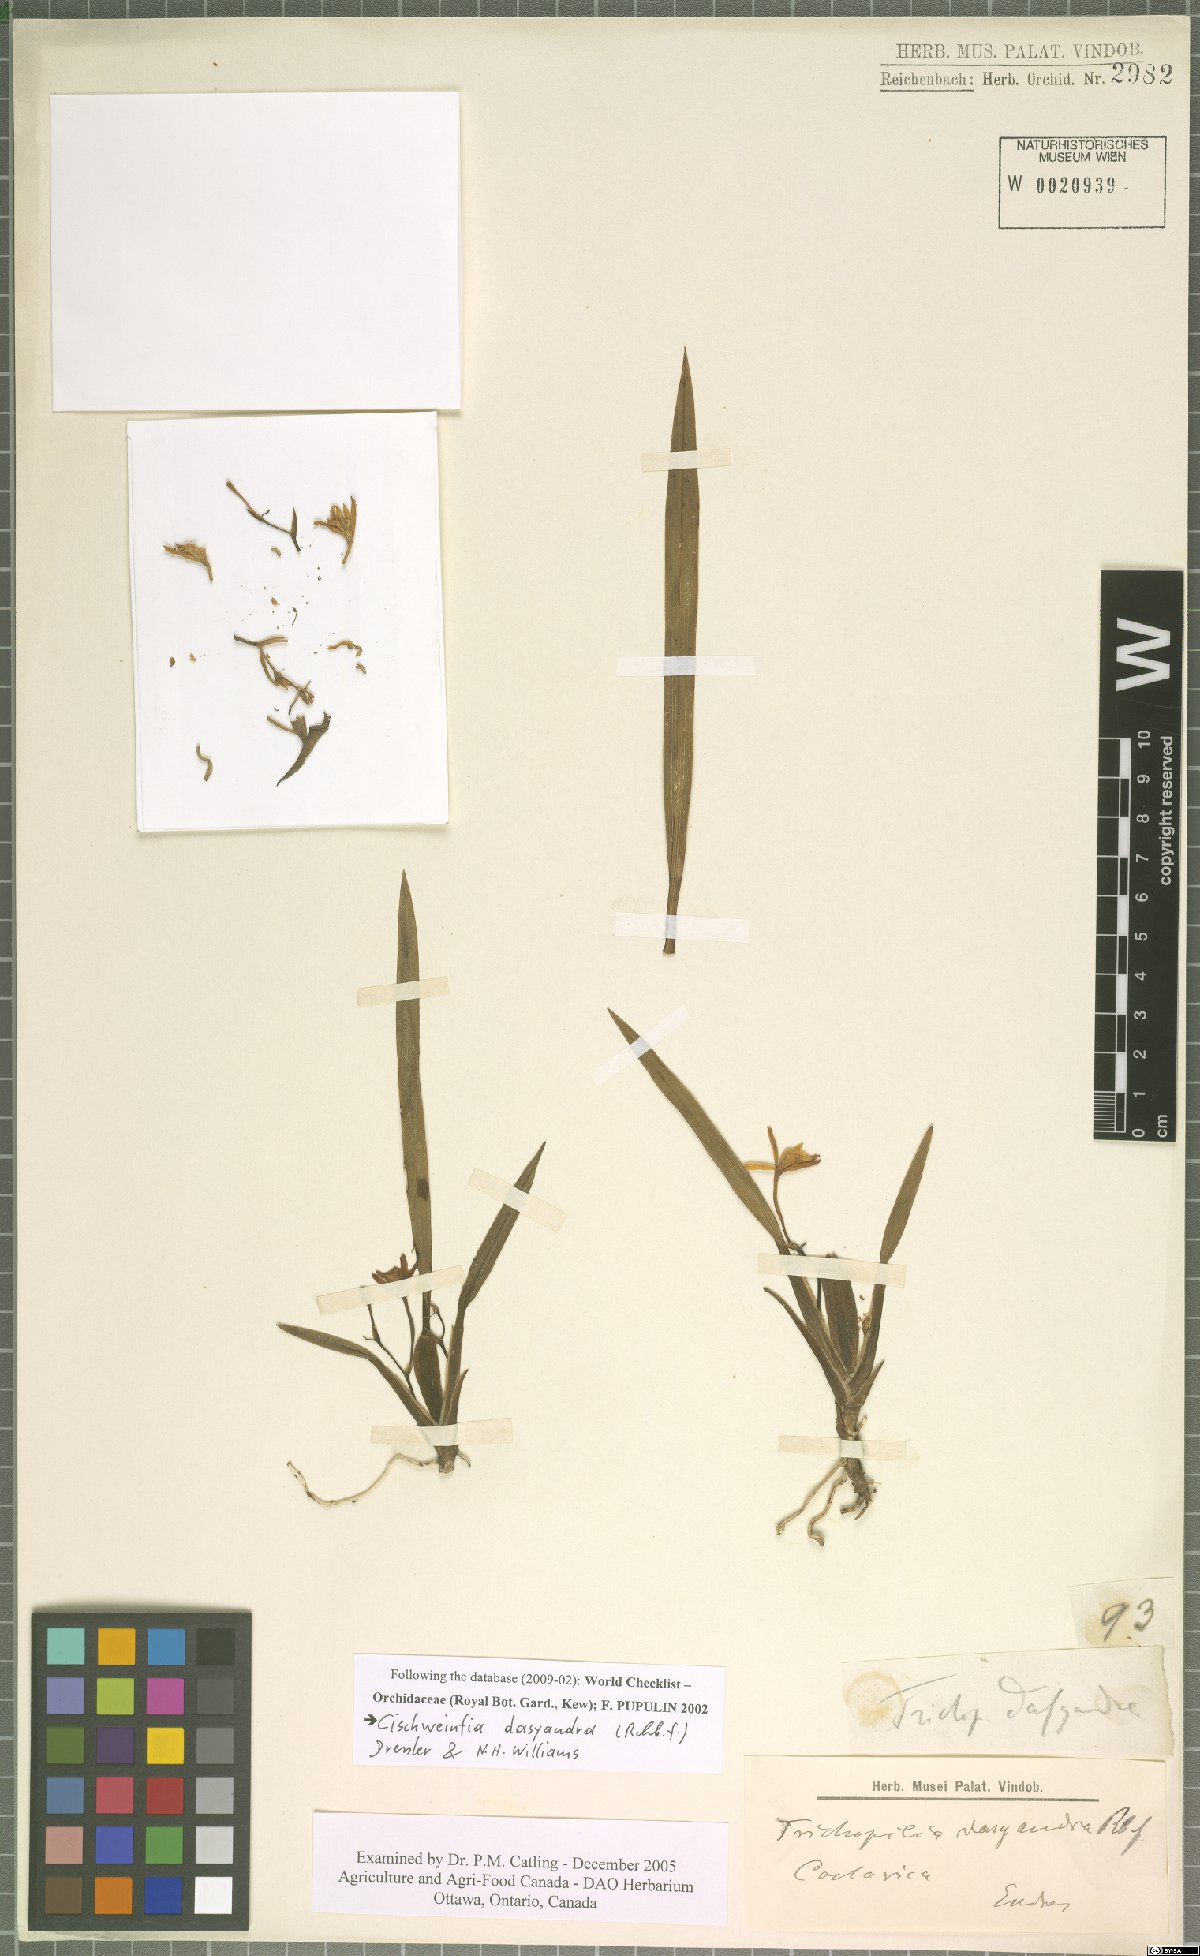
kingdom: Plantae
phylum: Tracheophyta
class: Liliopsida
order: Asparagales
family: Orchidaceae
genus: Cischweinfia
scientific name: Cischweinfia dasyandra
